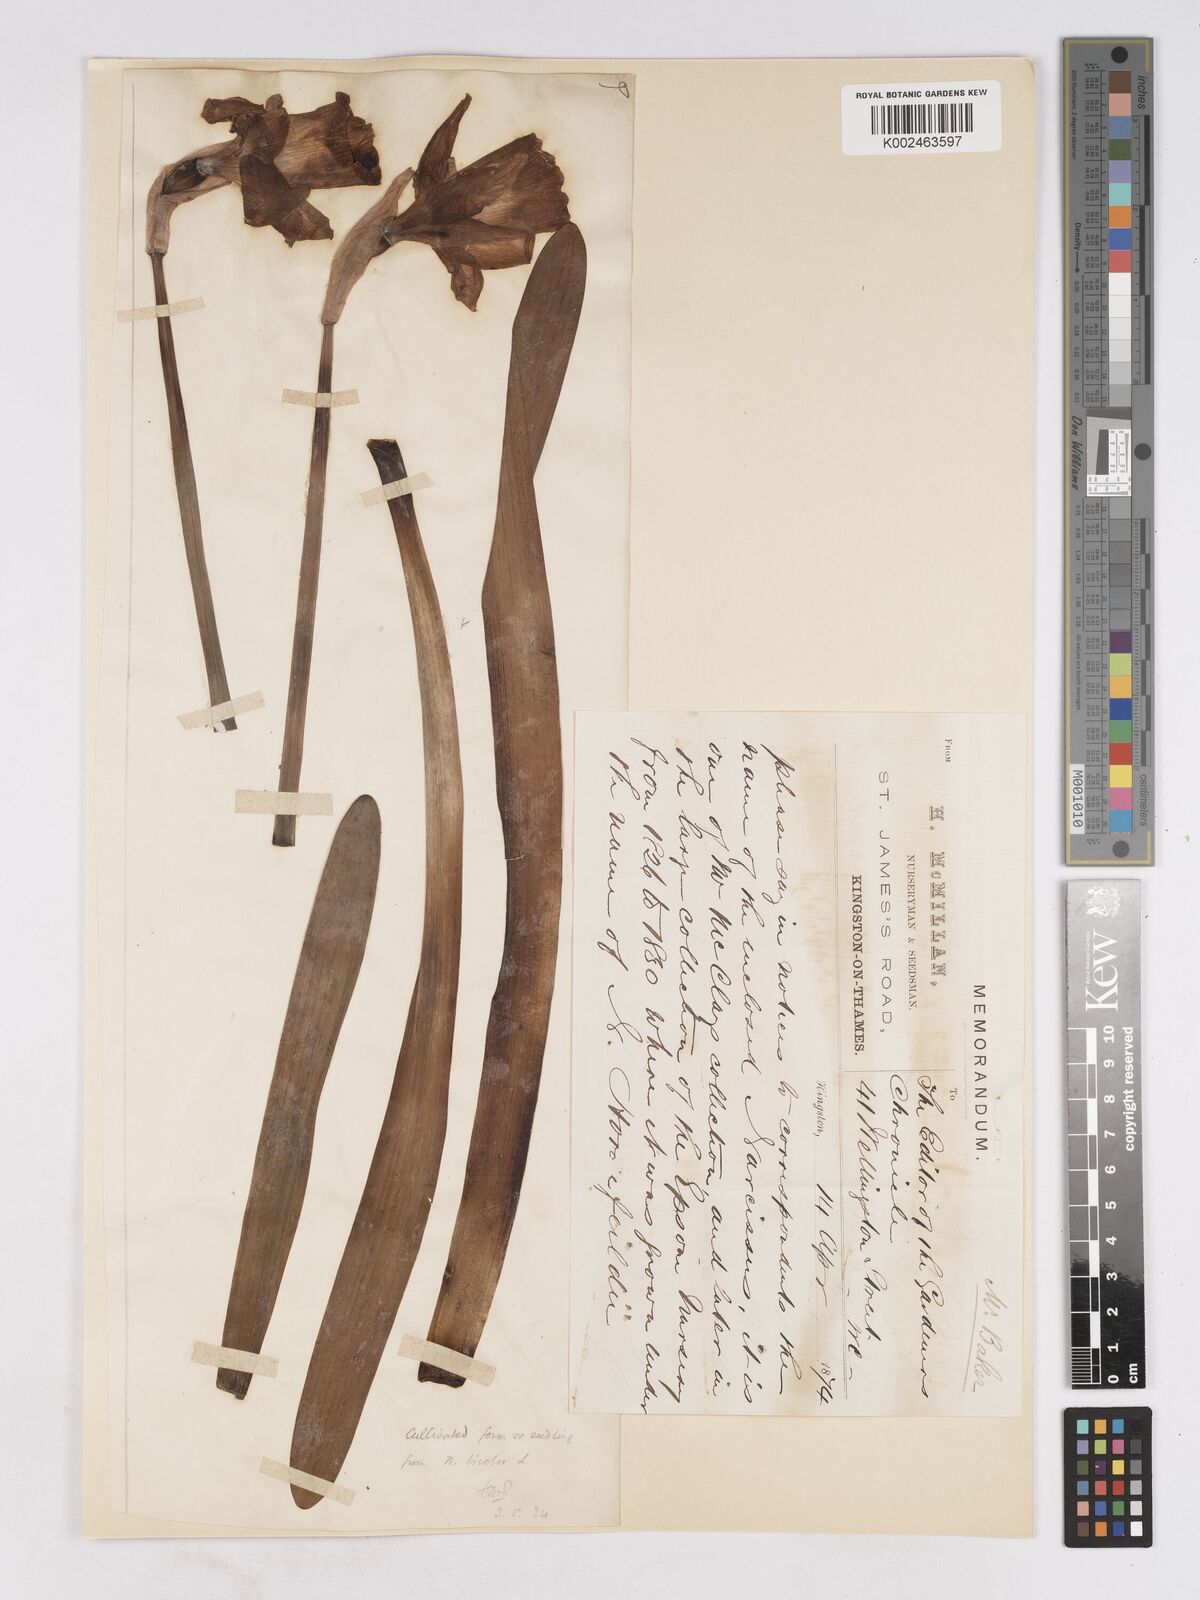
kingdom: Plantae
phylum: Tracheophyta
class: Liliopsida
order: Asparagales
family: Amaryllidaceae
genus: Narcissus
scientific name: Narcissus bicolor
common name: Two-color daffodil
